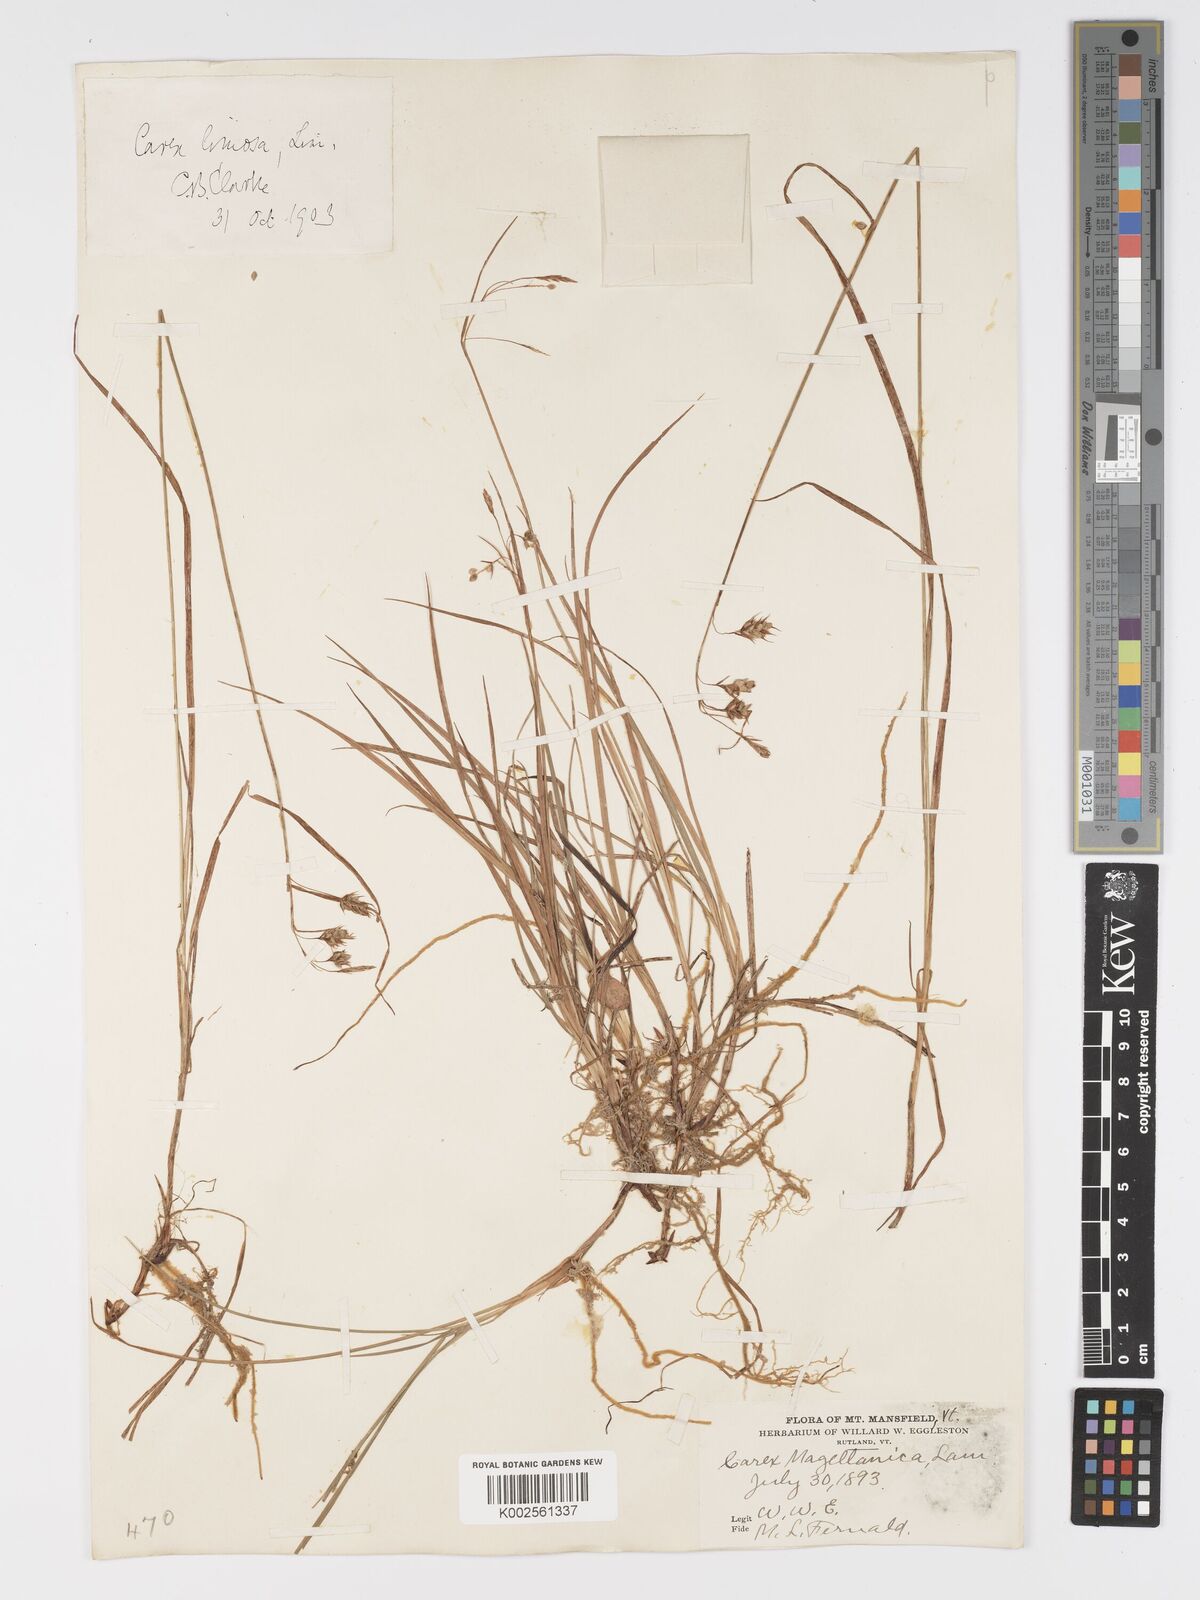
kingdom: Plantae
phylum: Tracheophyta
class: Liliopsida
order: Poales
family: Cyperaceae
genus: Carex
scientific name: Carex magellanica
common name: Bog sedge
